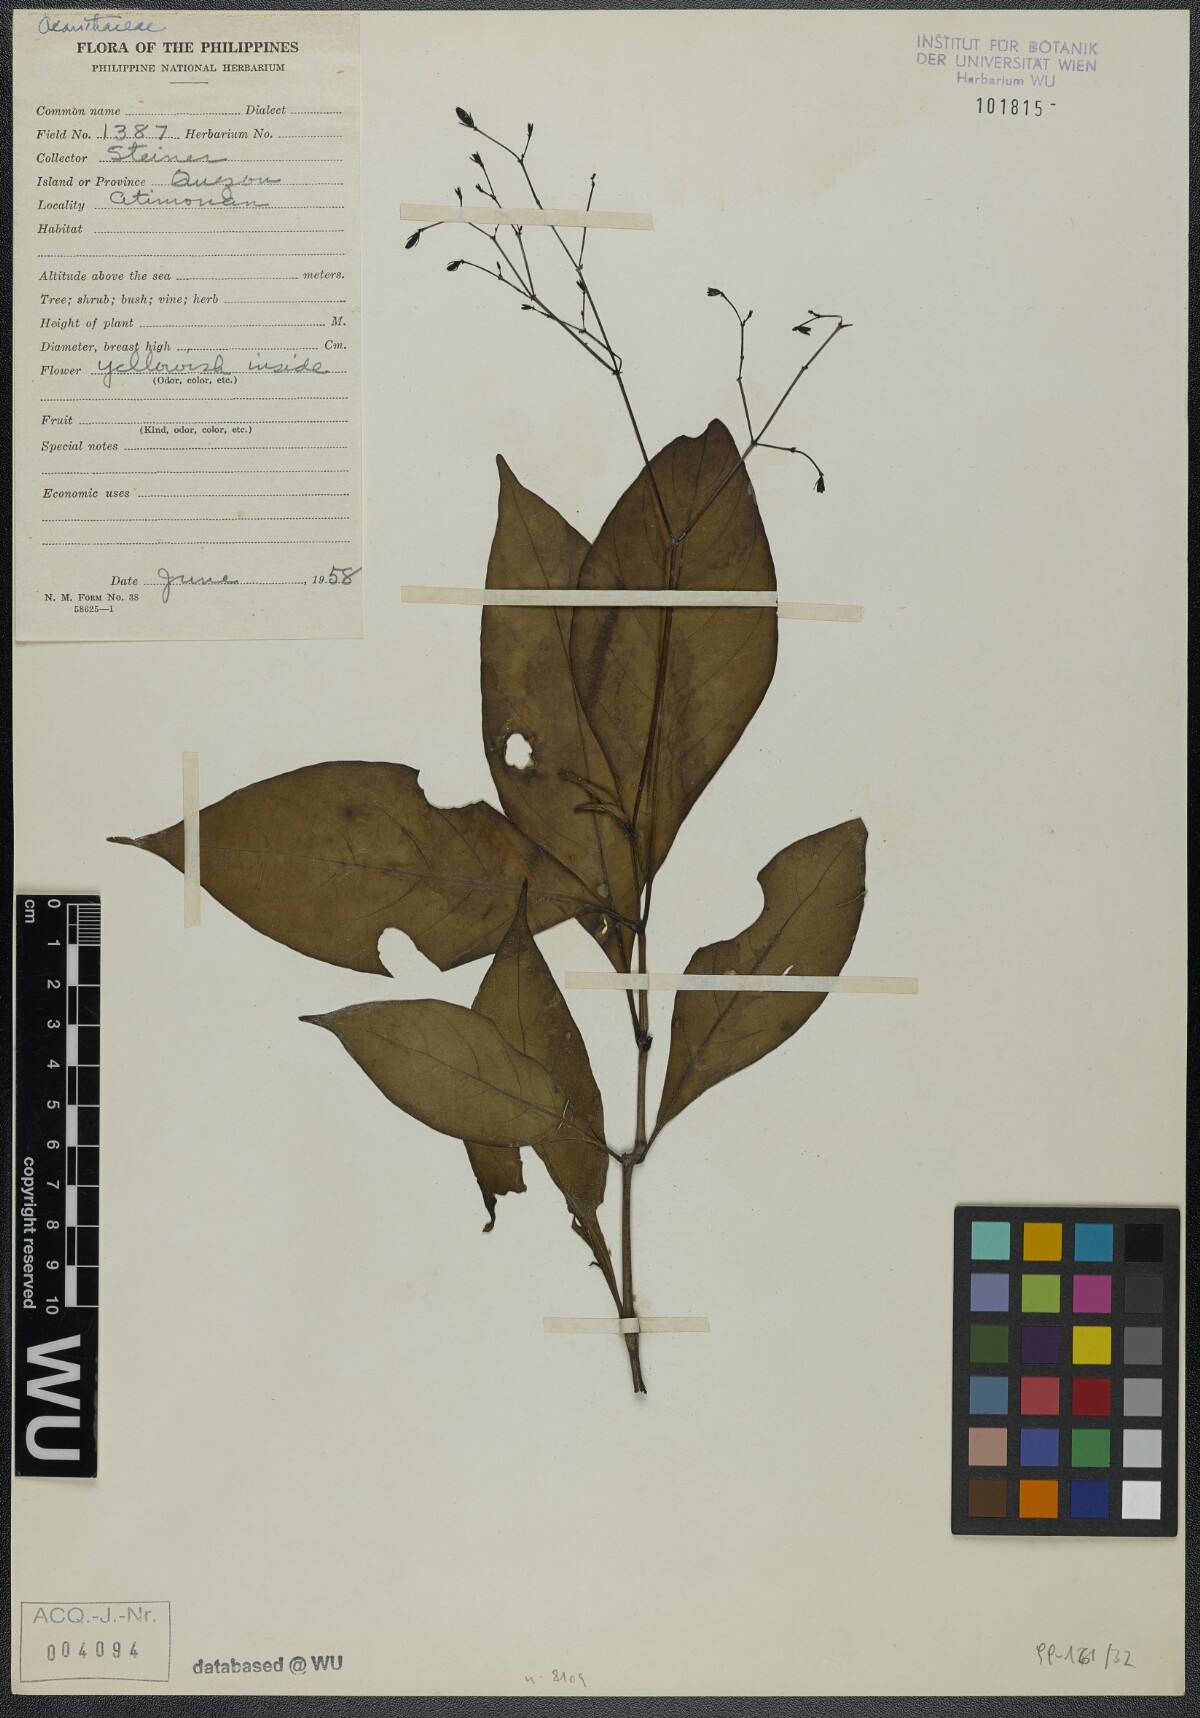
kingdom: Plantae
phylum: Tracheophyta
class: Magnoliopsida
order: Lamiales
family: Acanthaceae
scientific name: Acanthaceae
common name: Acanthaceae
